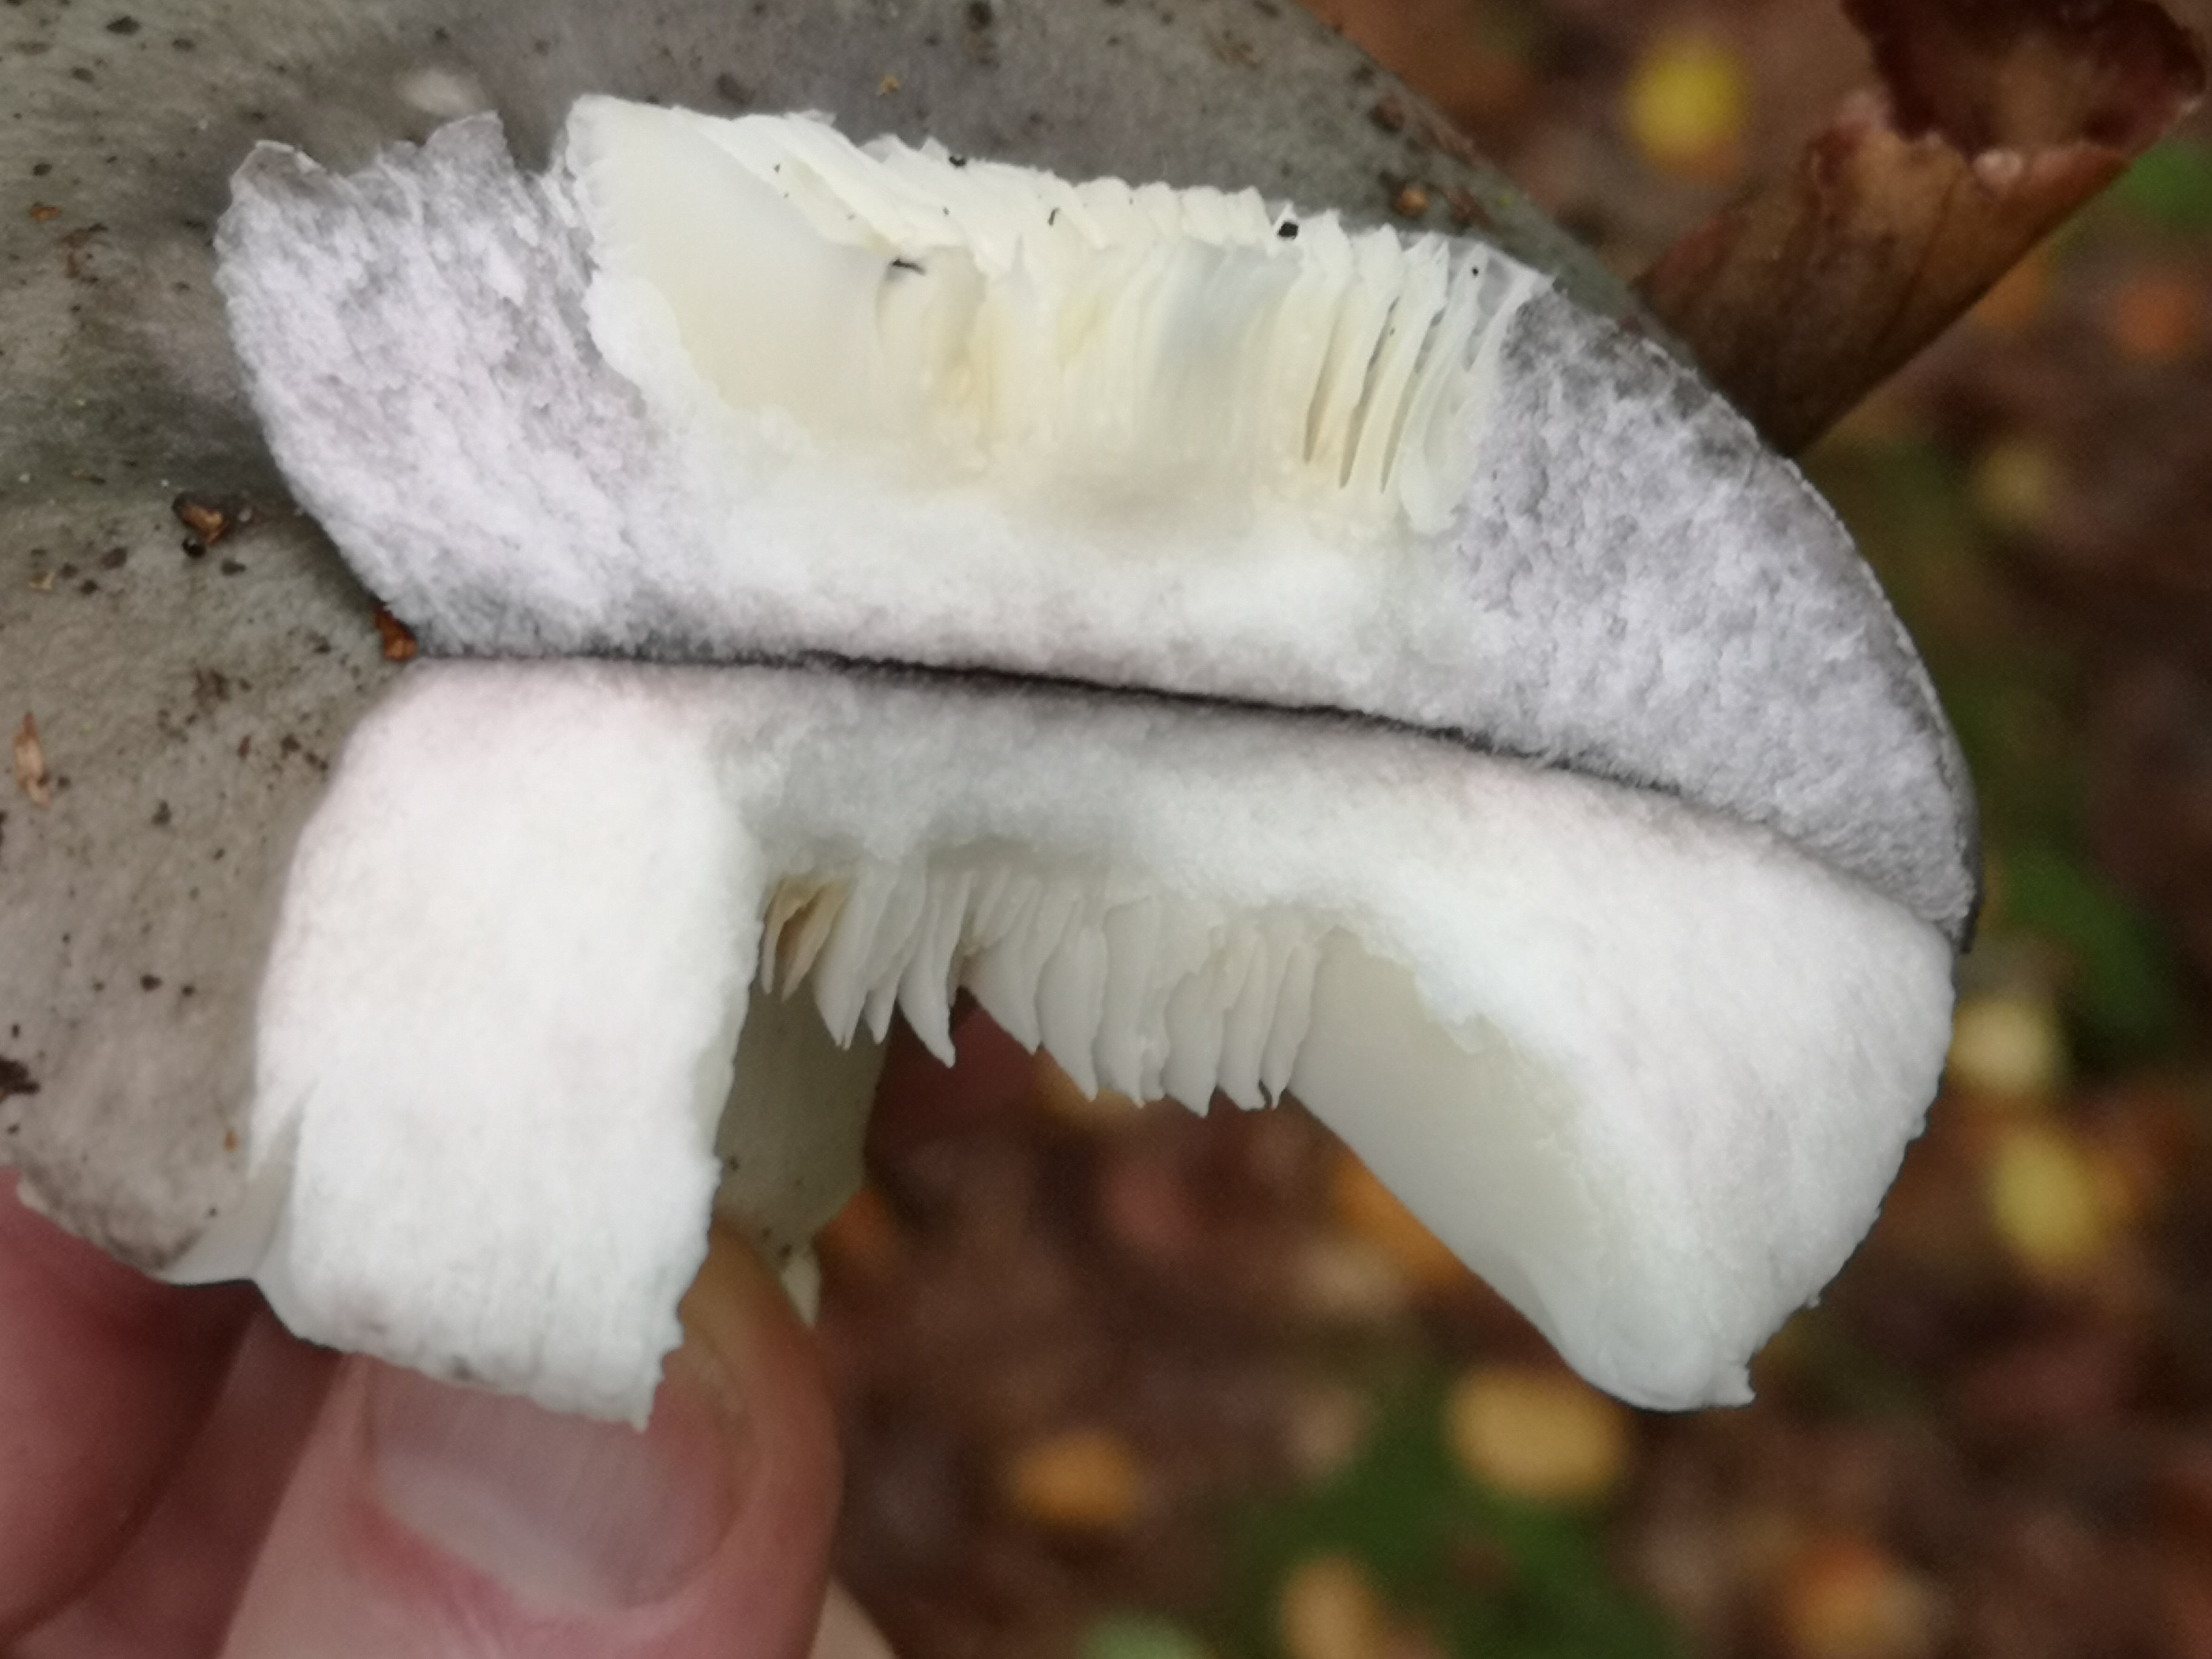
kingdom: Fungi
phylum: Basidiomycota
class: Agaricomycetes
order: Russulales
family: Russulaceae
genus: Russula
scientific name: Russula
